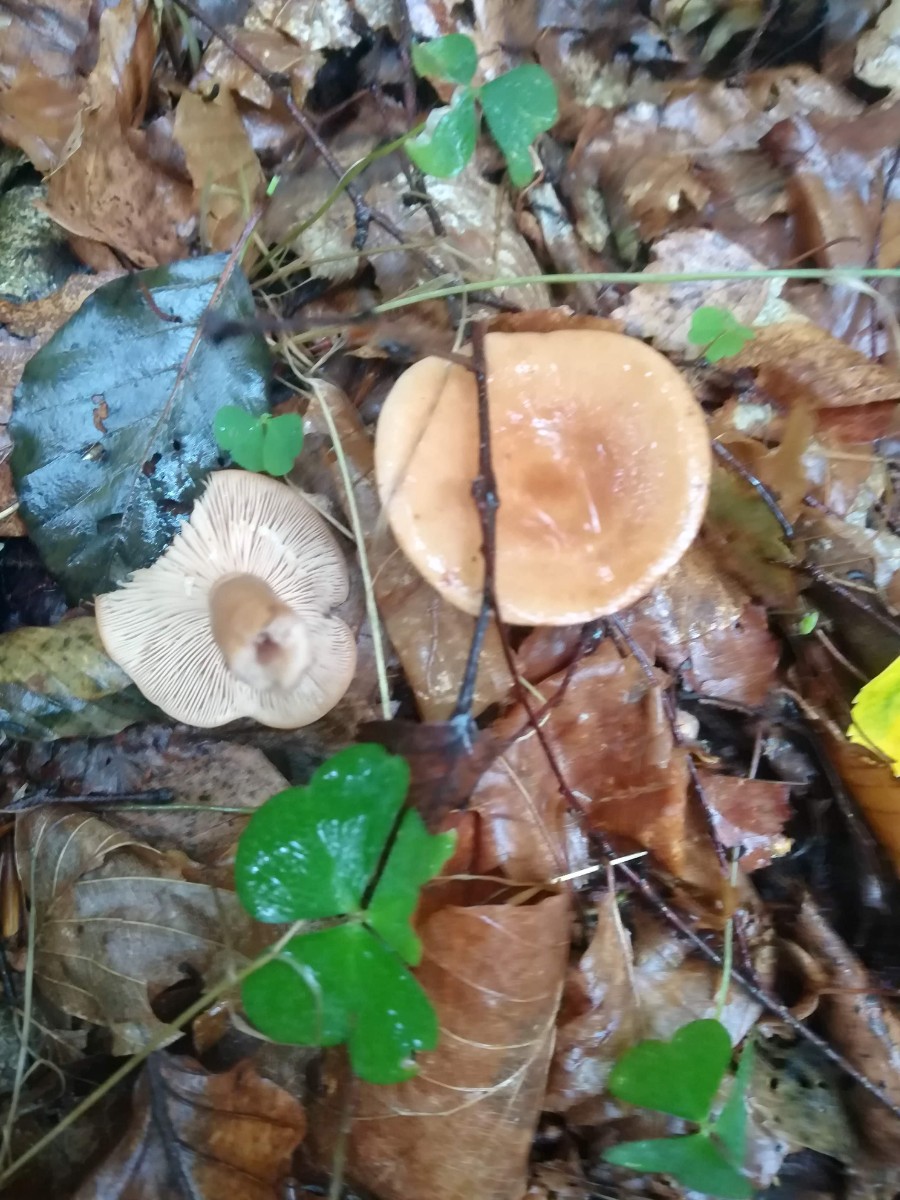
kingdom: Fungi
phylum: Basidiomycota
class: Agaricomycetes
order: Russulales
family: Russulaceae
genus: Lactarius
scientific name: Lactarius tabidus
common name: rynket mælkehat
